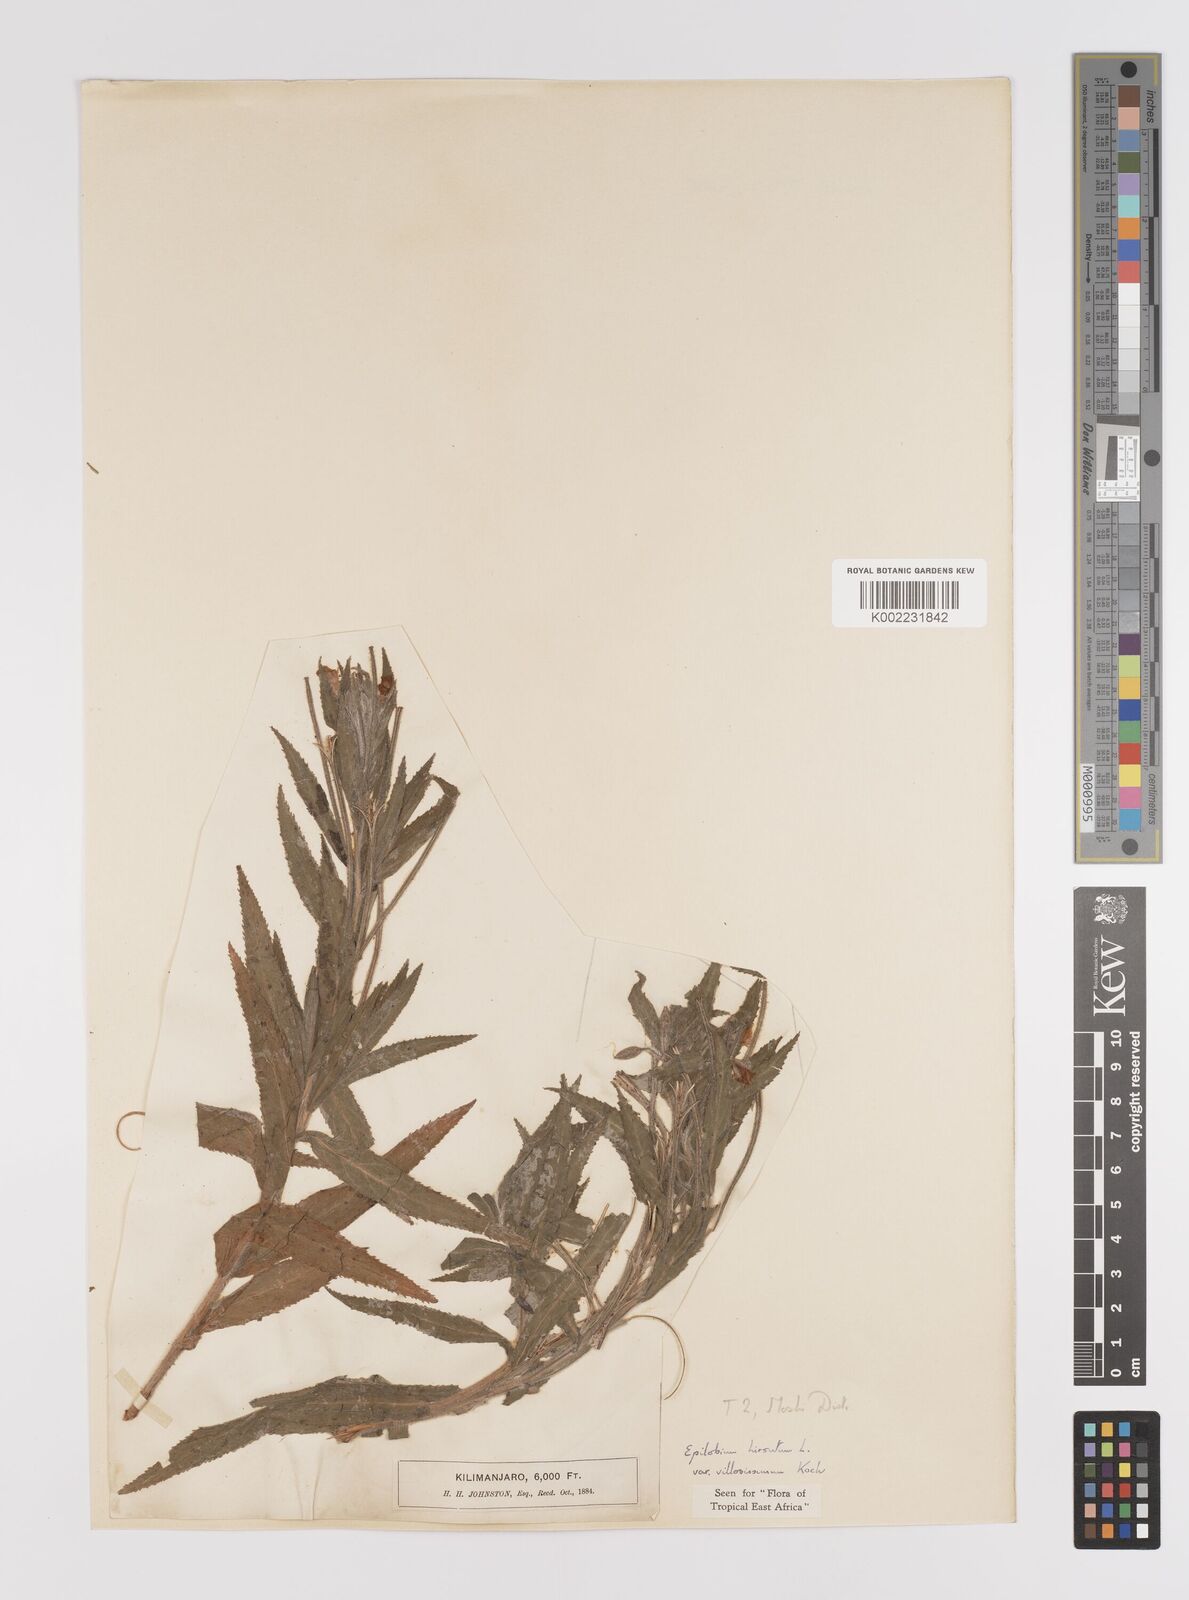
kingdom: Plantae
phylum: Tracheophyta
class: Magnoliopsida
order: Myrtales
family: Onagraceae
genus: Epilobium
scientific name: Epilobium hirsutum
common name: Great willowherb
